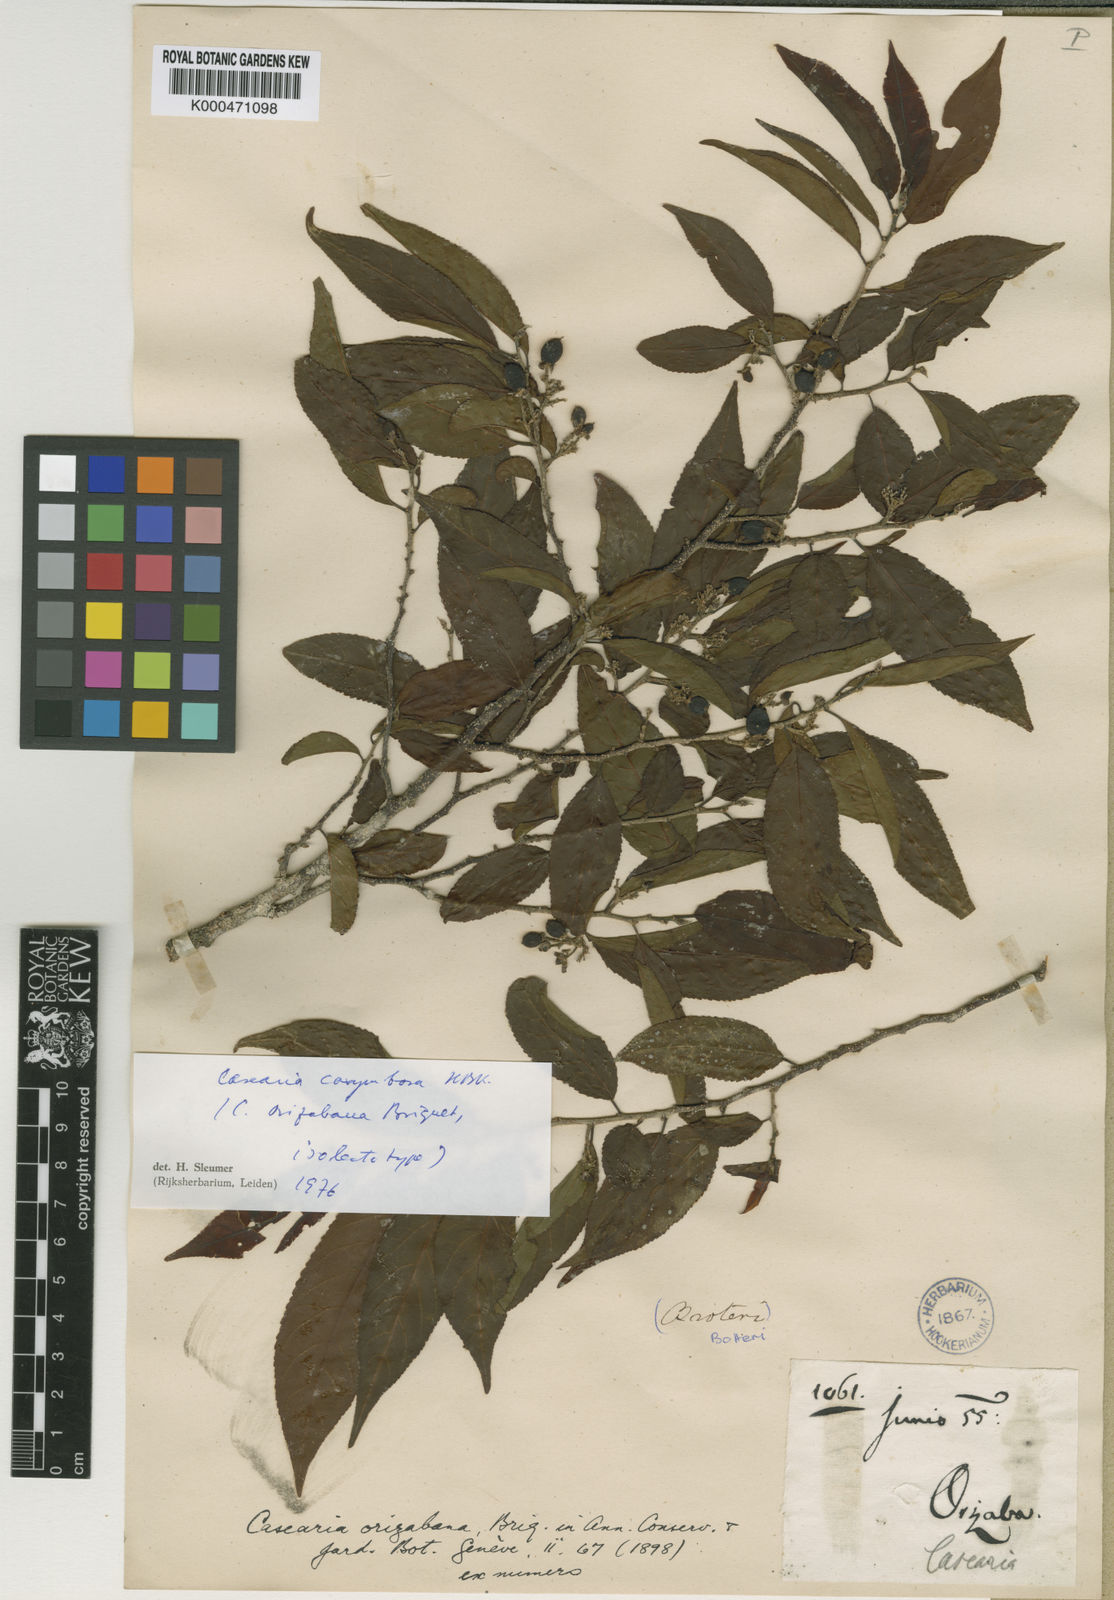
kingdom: Plantae
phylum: Tracheophyta
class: Magnoliopsida
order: Malpighiales
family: Salicaceae
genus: Casearia
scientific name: Casearia corymbosa
